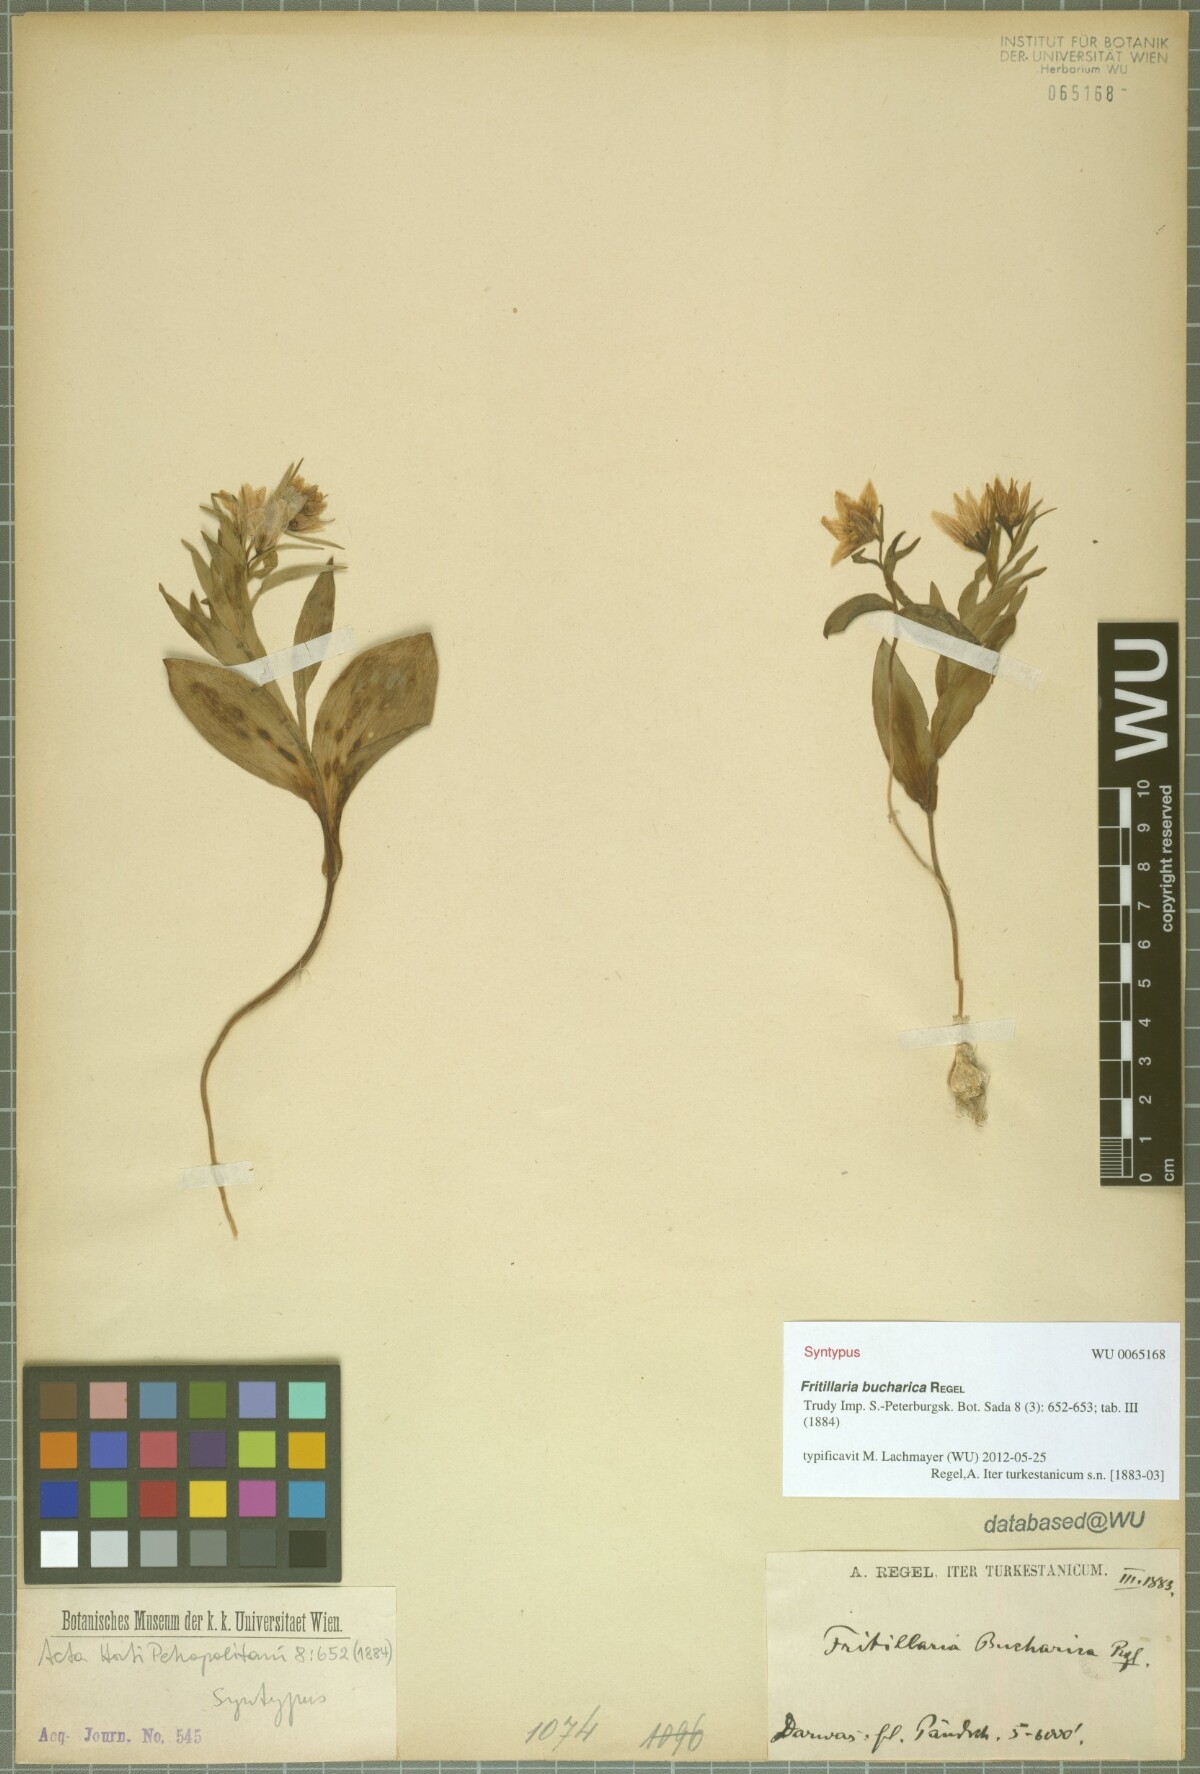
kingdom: Plantae
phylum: Tracheophyta
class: Liliopsida
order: Liliales
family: Liliaceae
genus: Fritillaria
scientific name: Fritillaria bucharica
